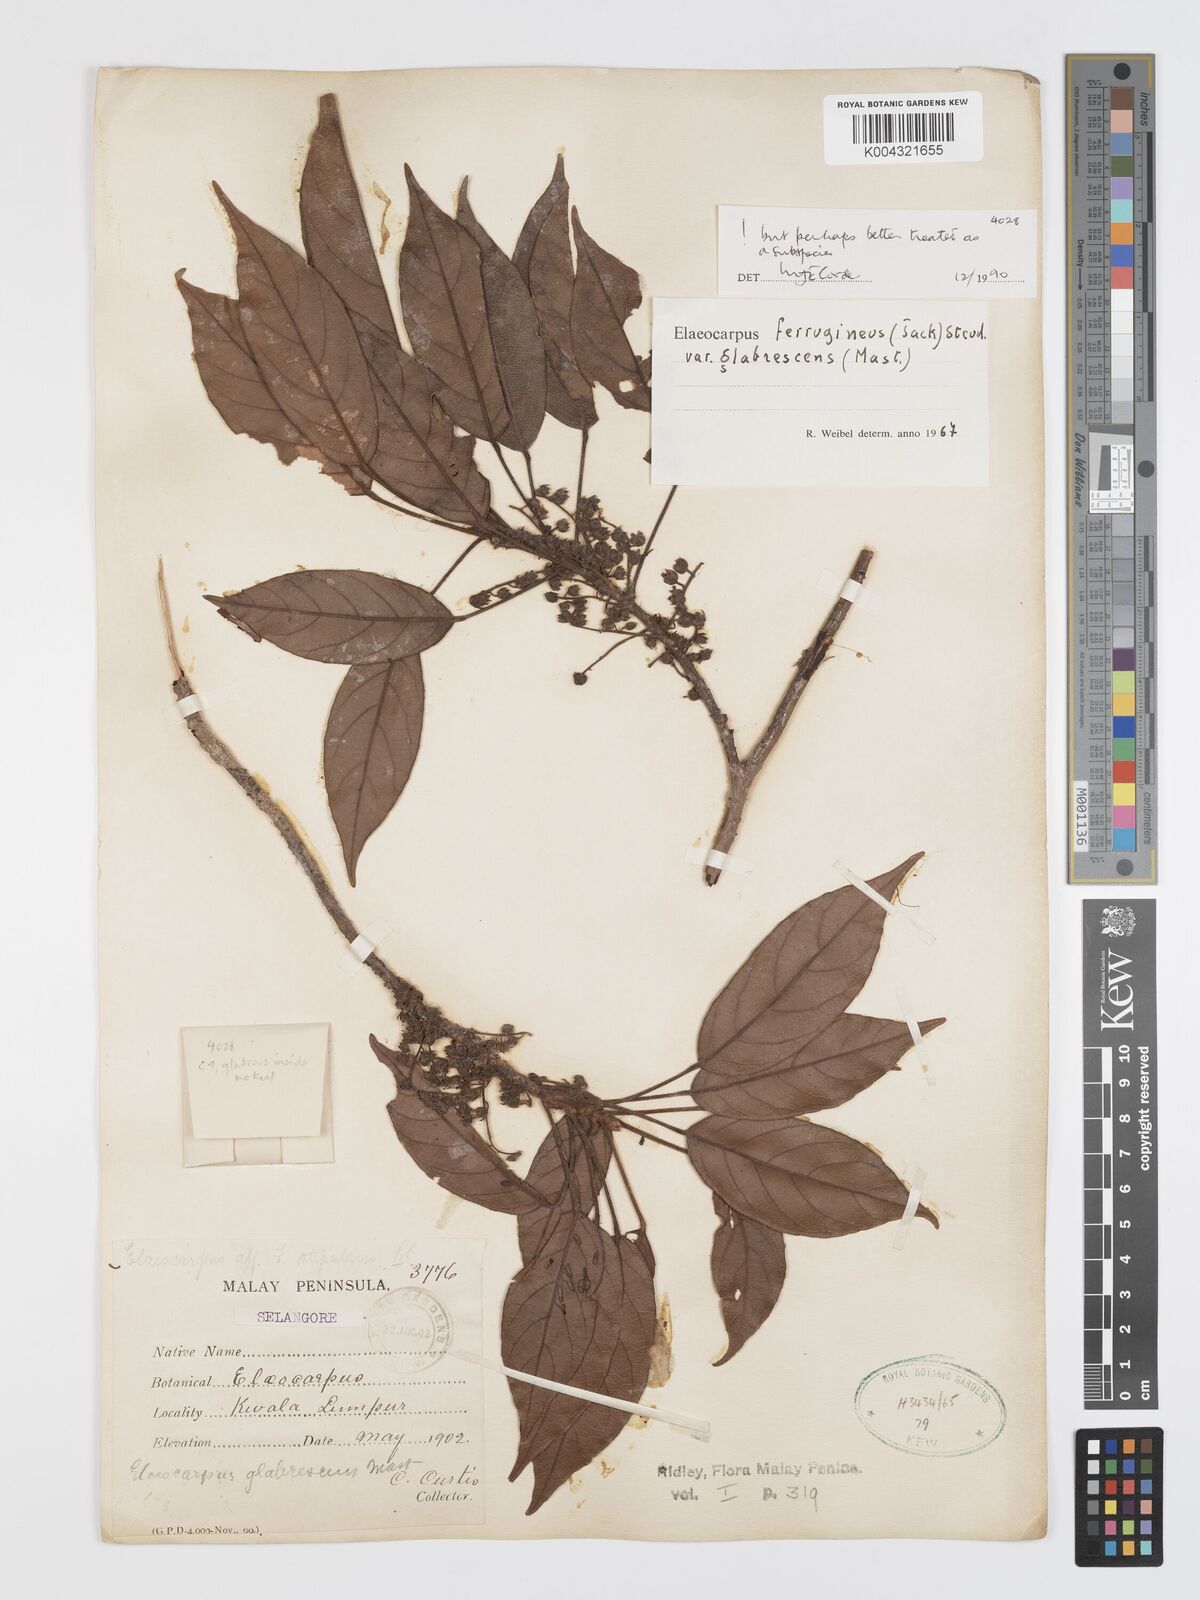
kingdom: Plantae
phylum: Tracheophyta
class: Magnoliopsida
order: Oxalidales
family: Elaeocarpaceae
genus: Elaeocarpus
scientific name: Elaeocarpus ferrugineus
